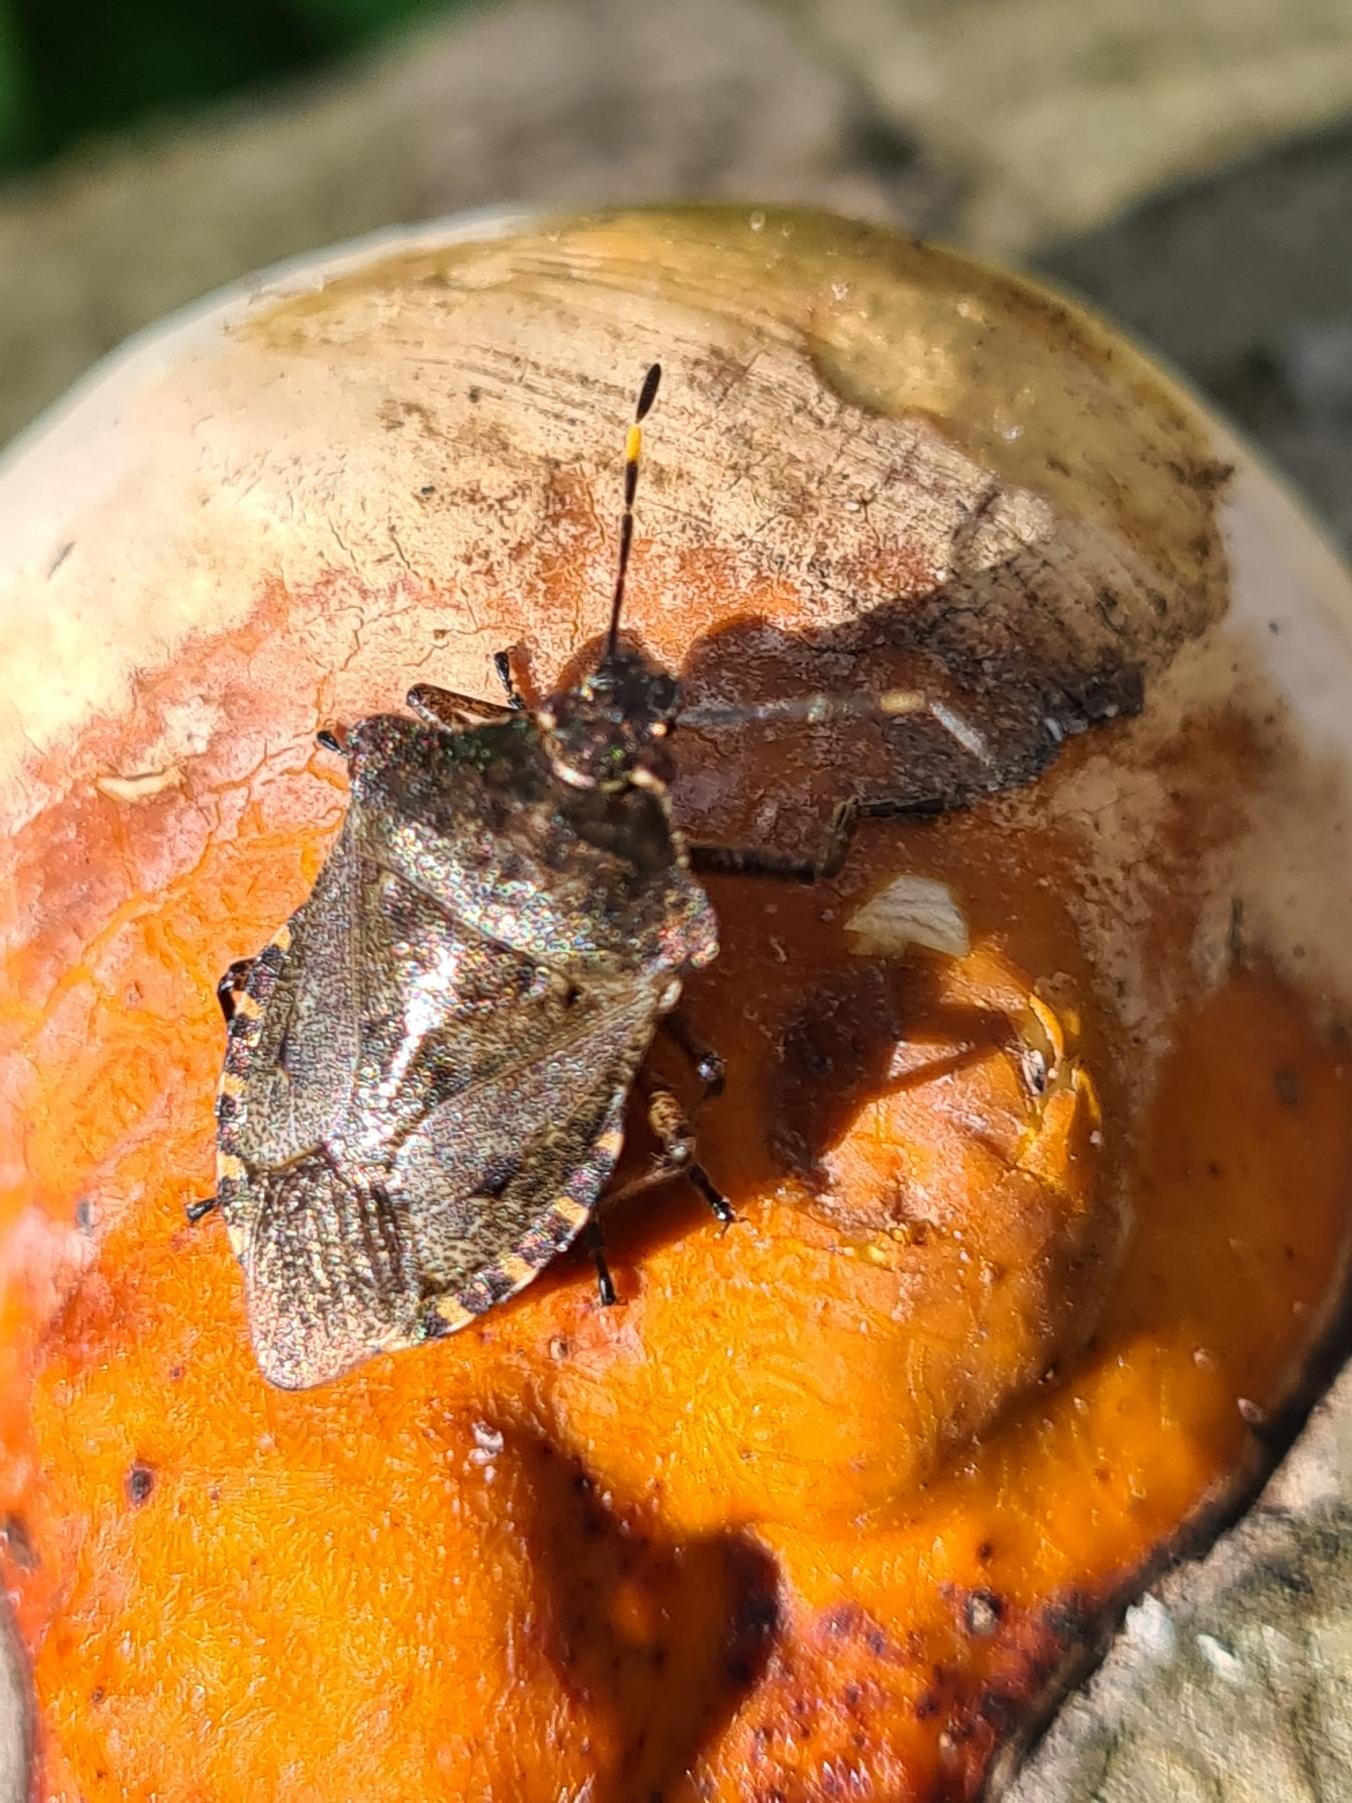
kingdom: Animalia
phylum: Arthropoda
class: Insecta
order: Hemiptera
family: Pentatomidae
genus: Troilus
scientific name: Troilus luridus
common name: Skovbredtæge
